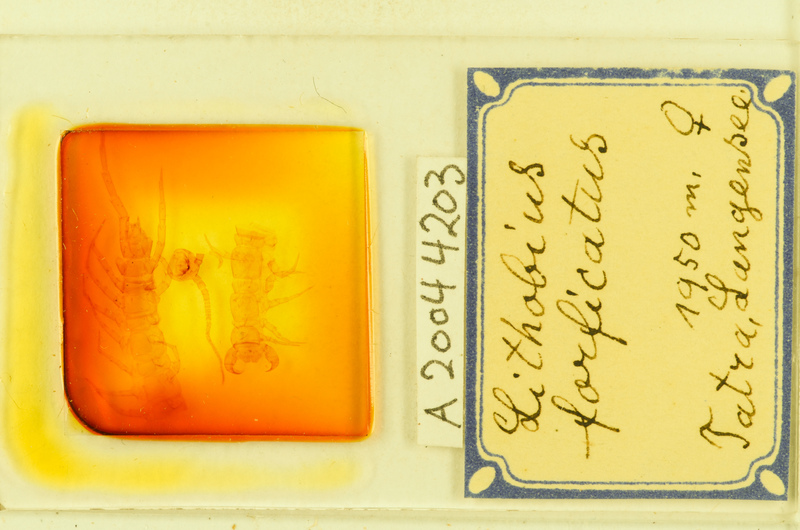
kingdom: Animalia
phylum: Arthropoda
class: Chilopoda
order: Lithobiomorpha
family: Lithobiidae
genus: Lithobius
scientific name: Lithobius forficatus
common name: Centipede
